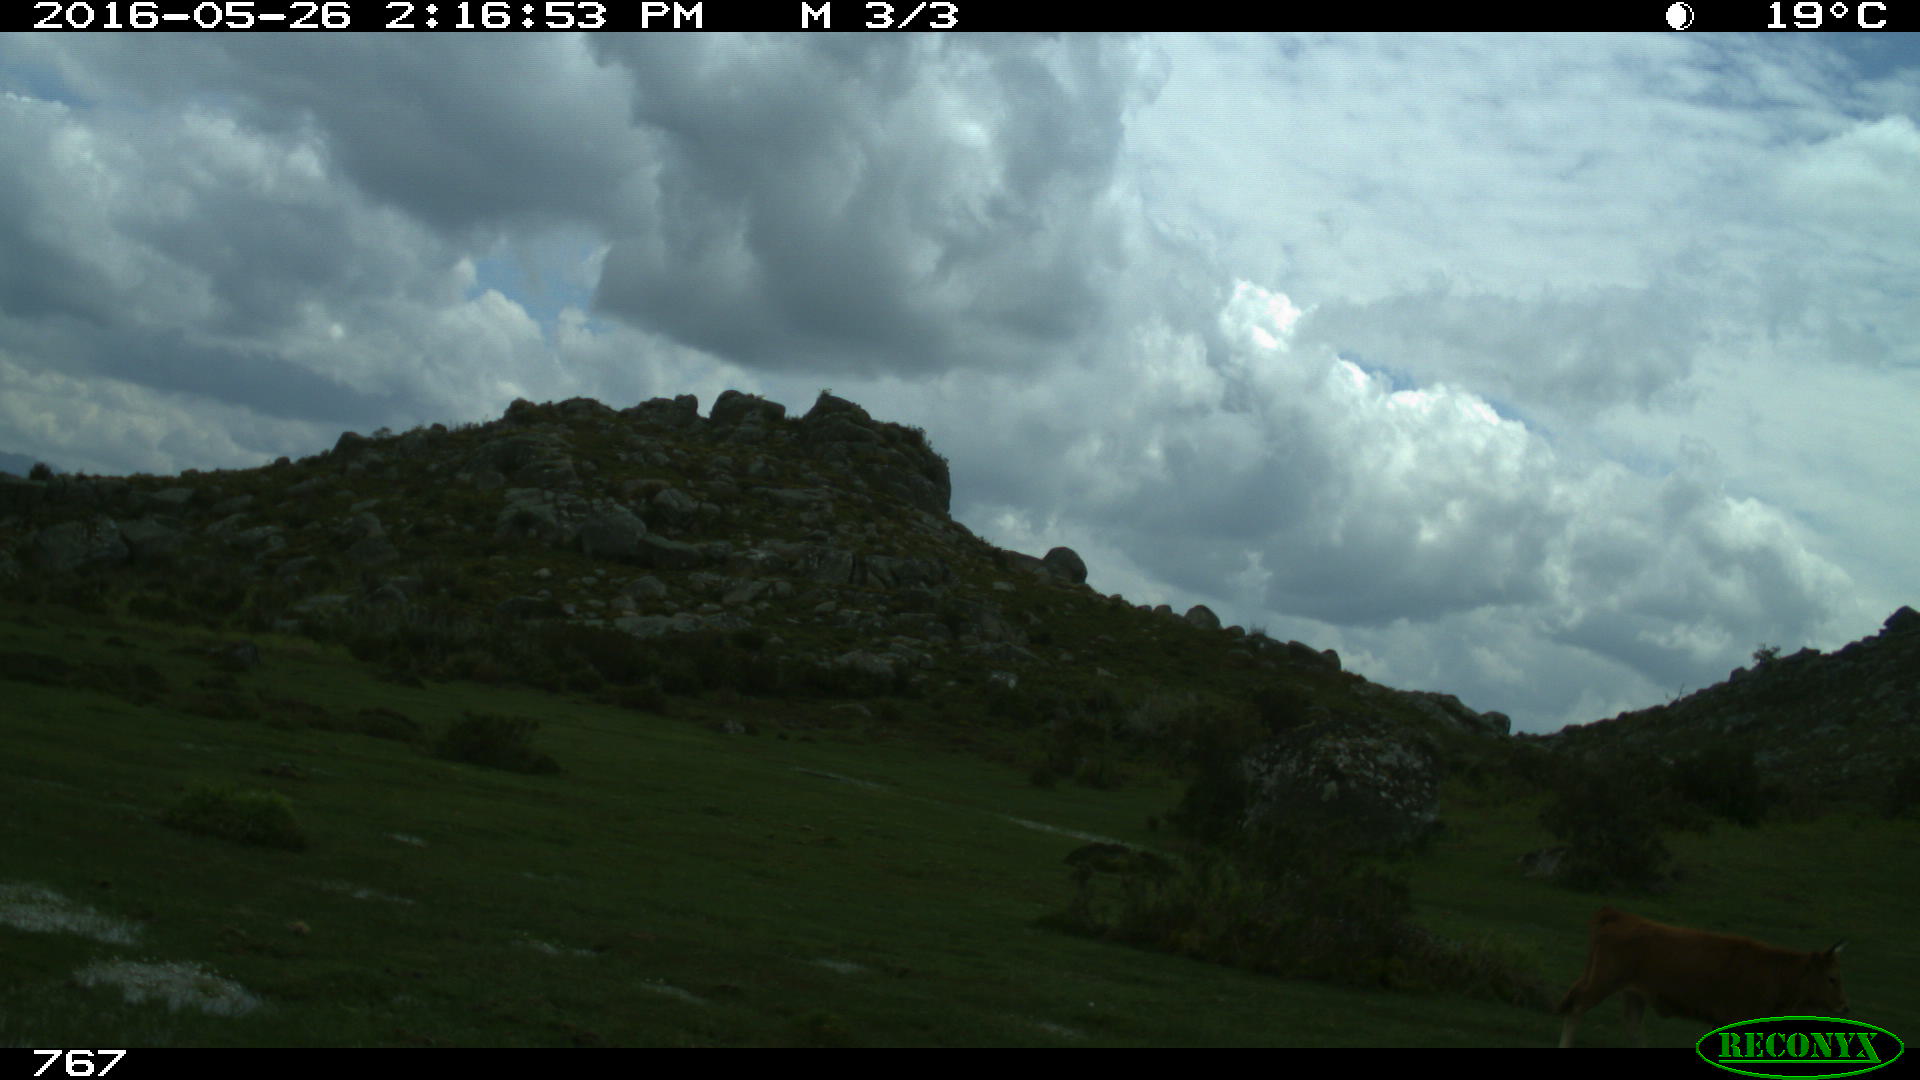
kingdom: Animalia
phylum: Chordata
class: Mammalia
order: Artiodactyla
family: Bovidae
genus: Bos
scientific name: Bos taurus
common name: Domesticated cattle
